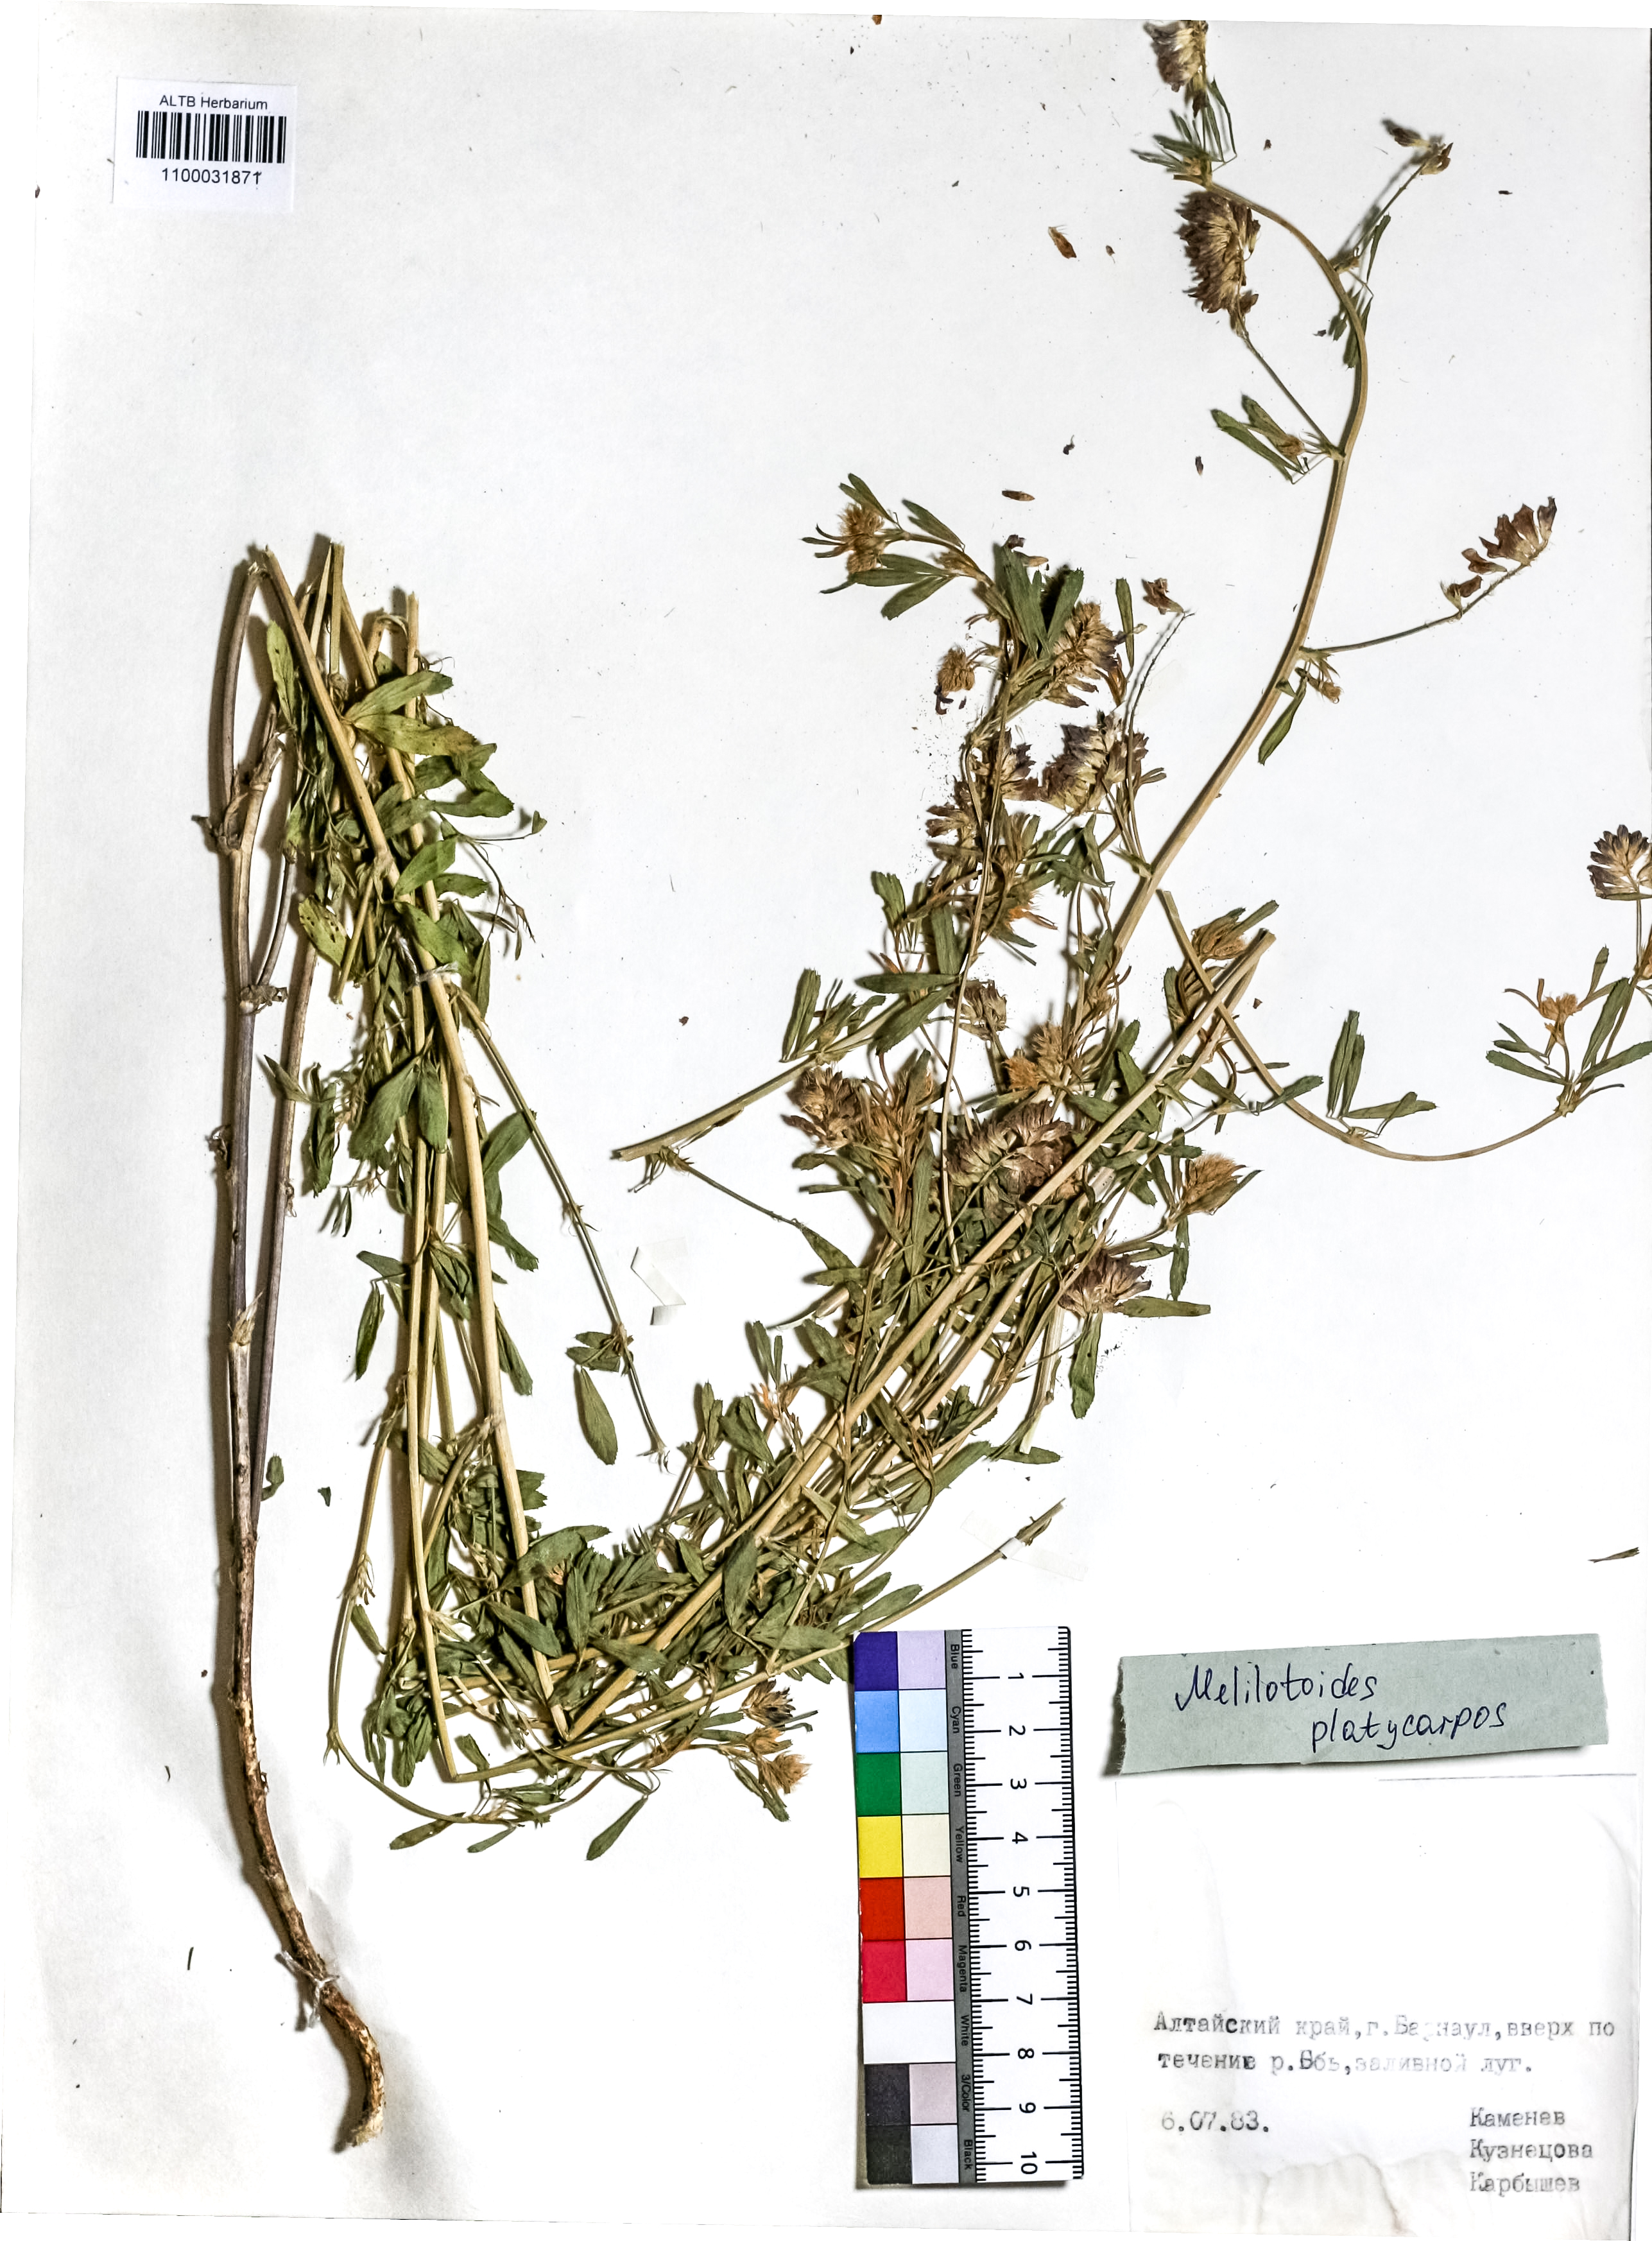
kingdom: Plantae
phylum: Tracheophyta
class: Magnoliopsida
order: Fabales
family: Fabaceae
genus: Medicago
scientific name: Medicago platycarpos
